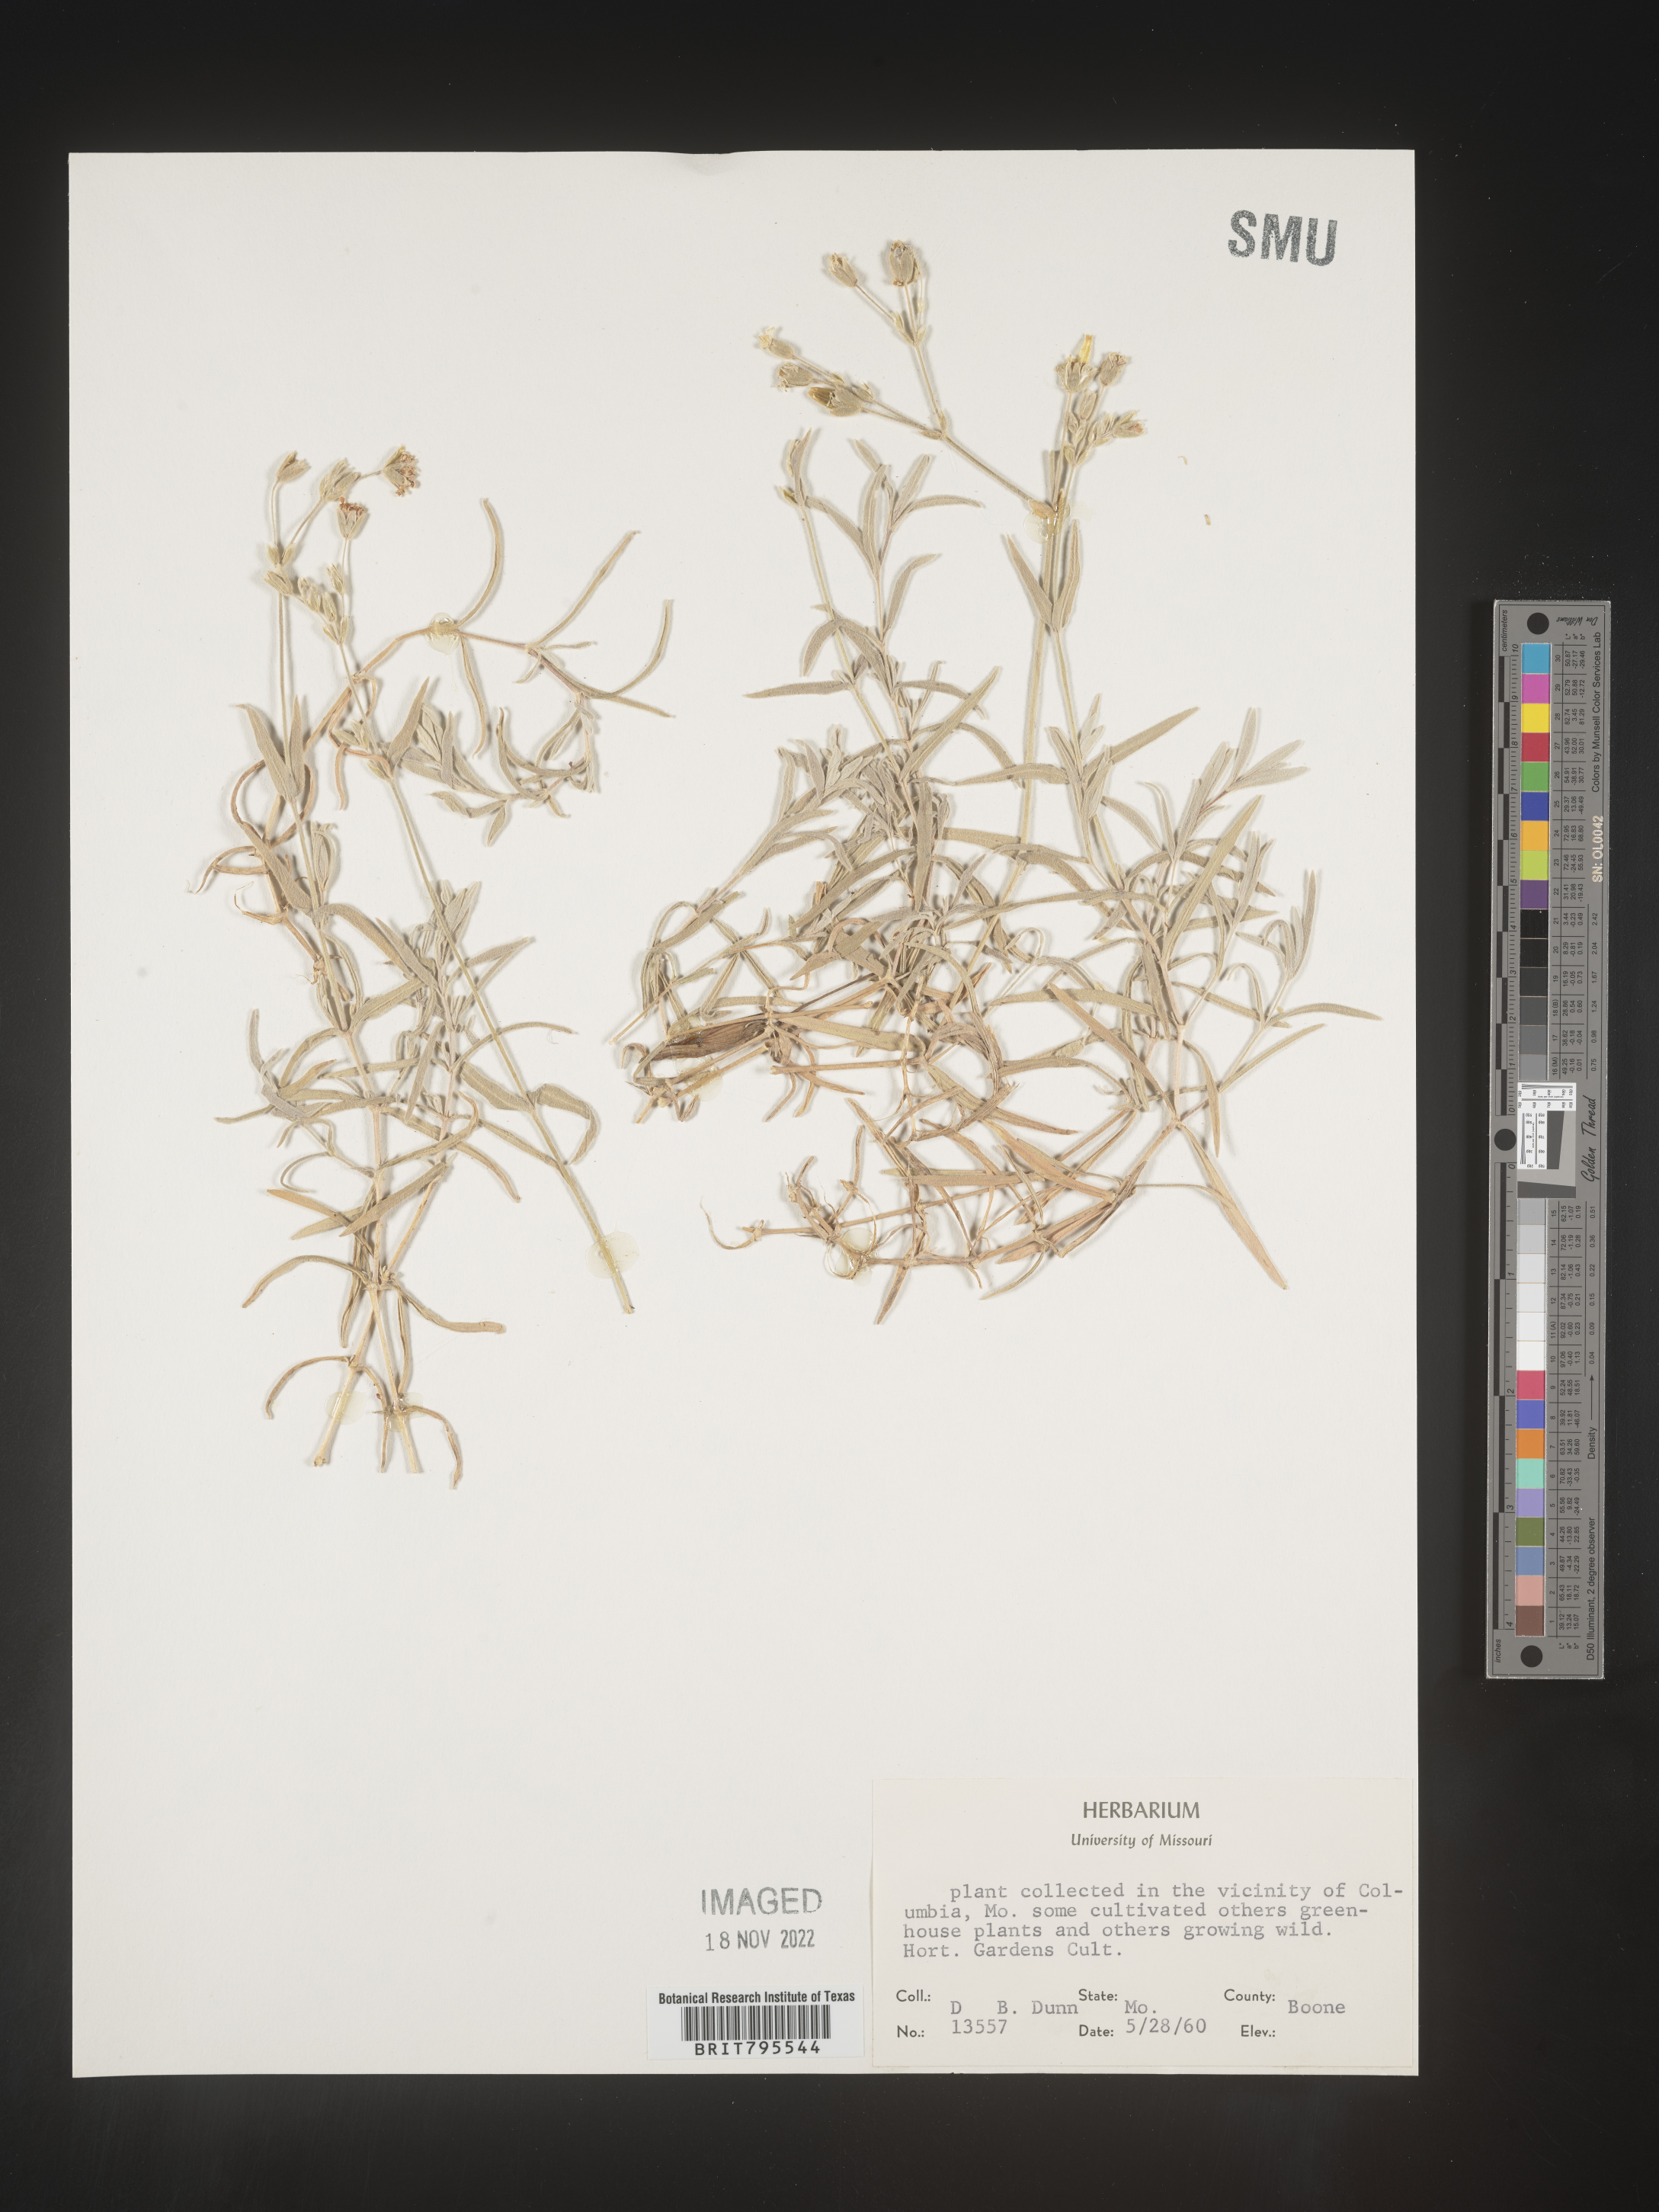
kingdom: Plantae
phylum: Tracheophyta
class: Magnoliopsida
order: Caryophyllales
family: Caryophyllaceae
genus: Cerastium
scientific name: Cerastium
